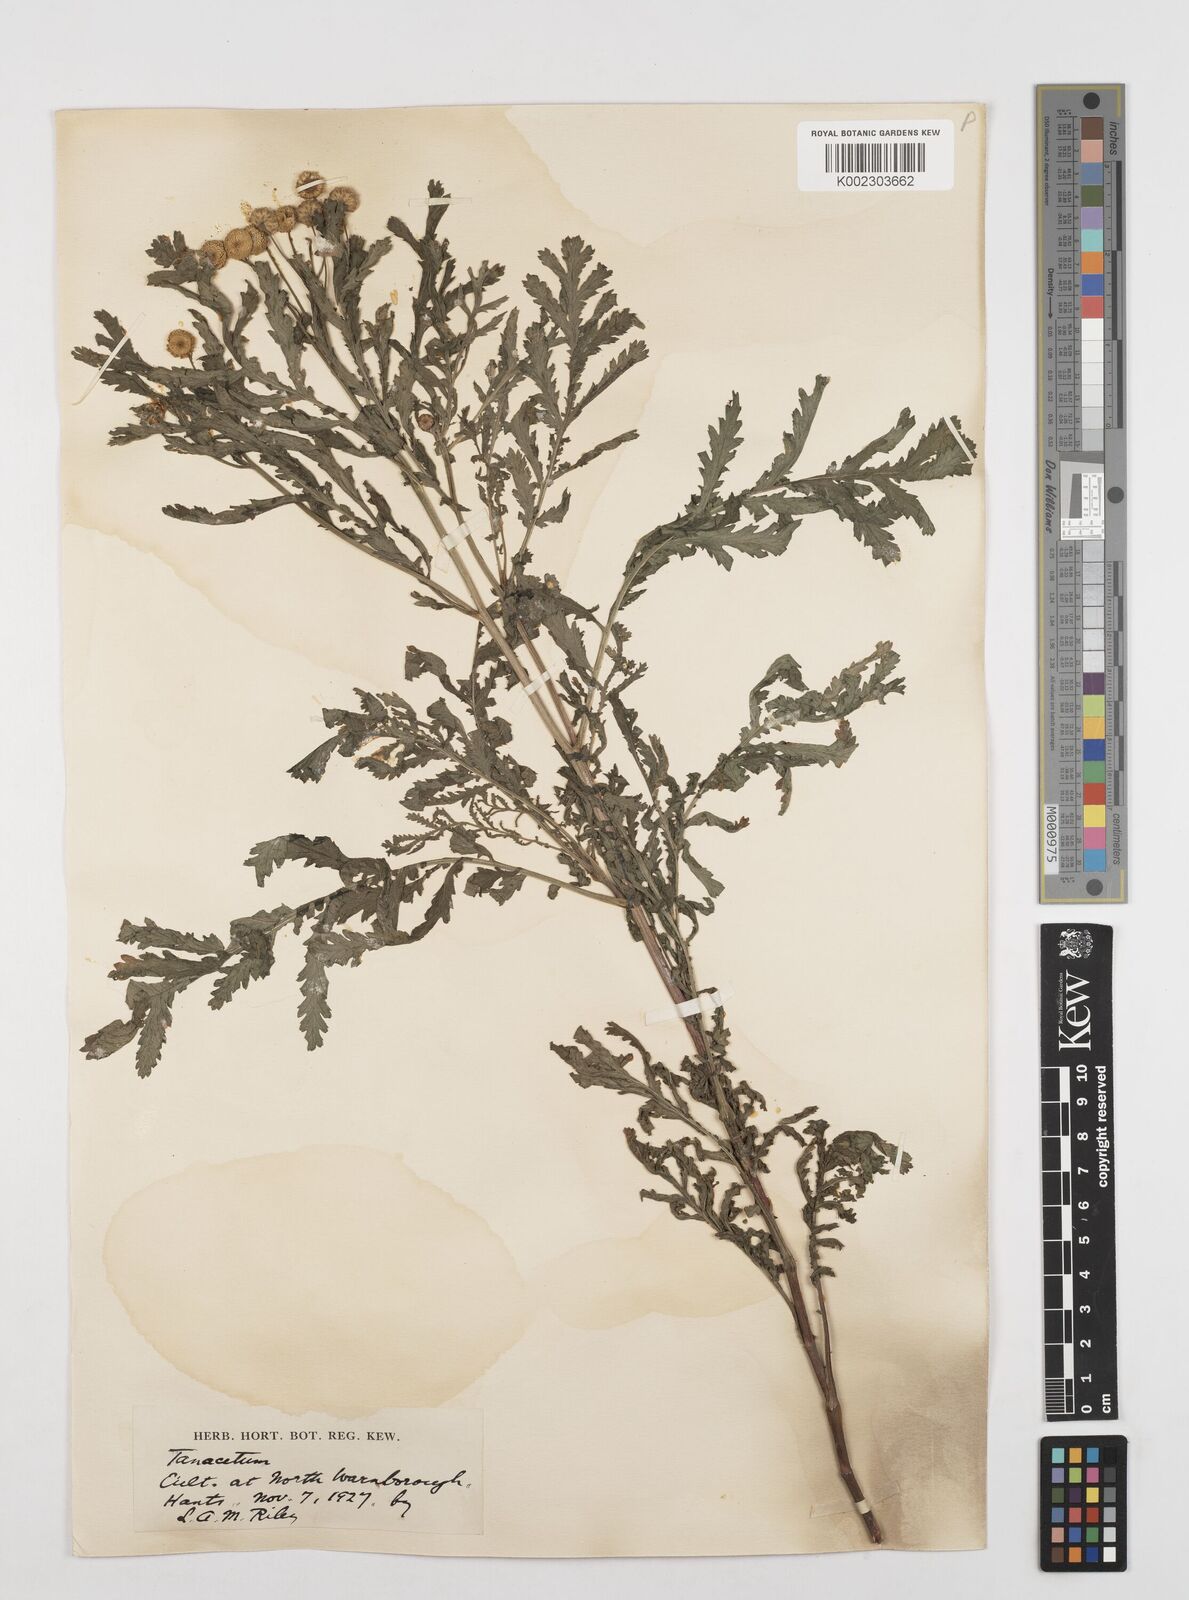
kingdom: Plantae
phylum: Tracheophyta
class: Magnoliopsida
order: Asterales
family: Asteraceae
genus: Tanacetum
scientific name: Tanacetum
